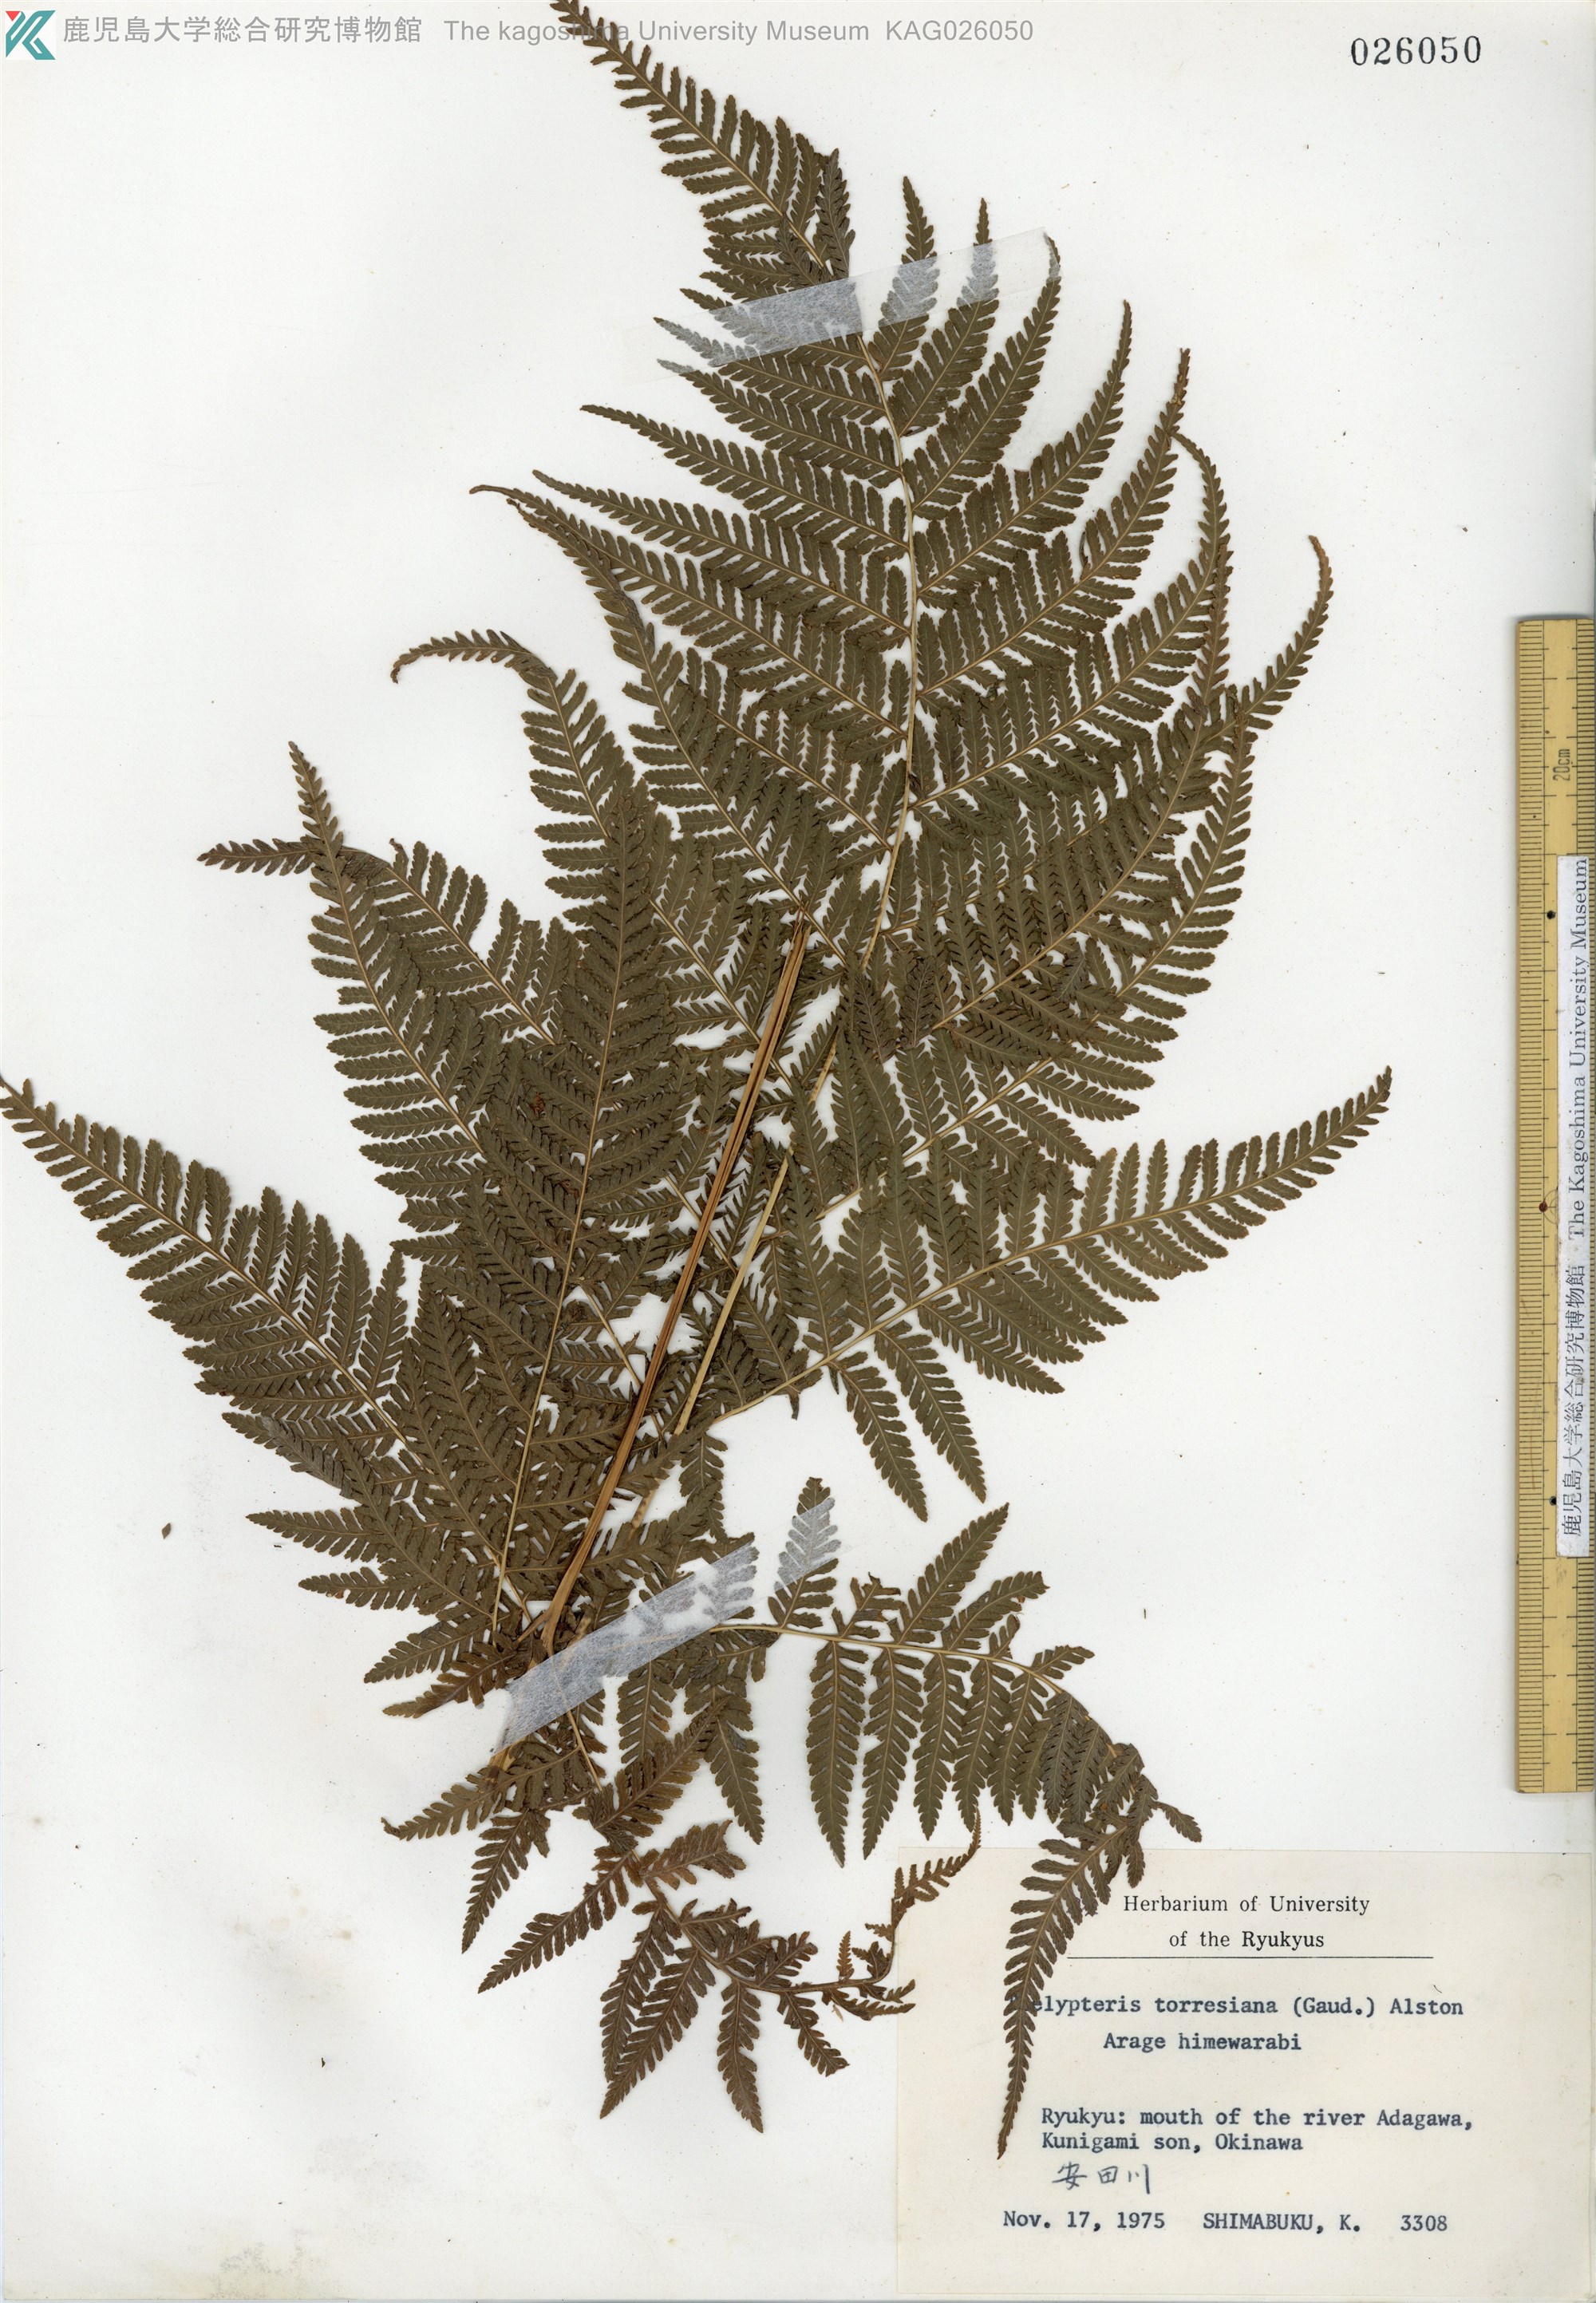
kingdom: Plantae
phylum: Tracheophyta
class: Polypodiopsida
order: Polypodiales
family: Thelypteridaceae
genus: Macrothelypteris
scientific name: Macrothelypteris oligophlebia
